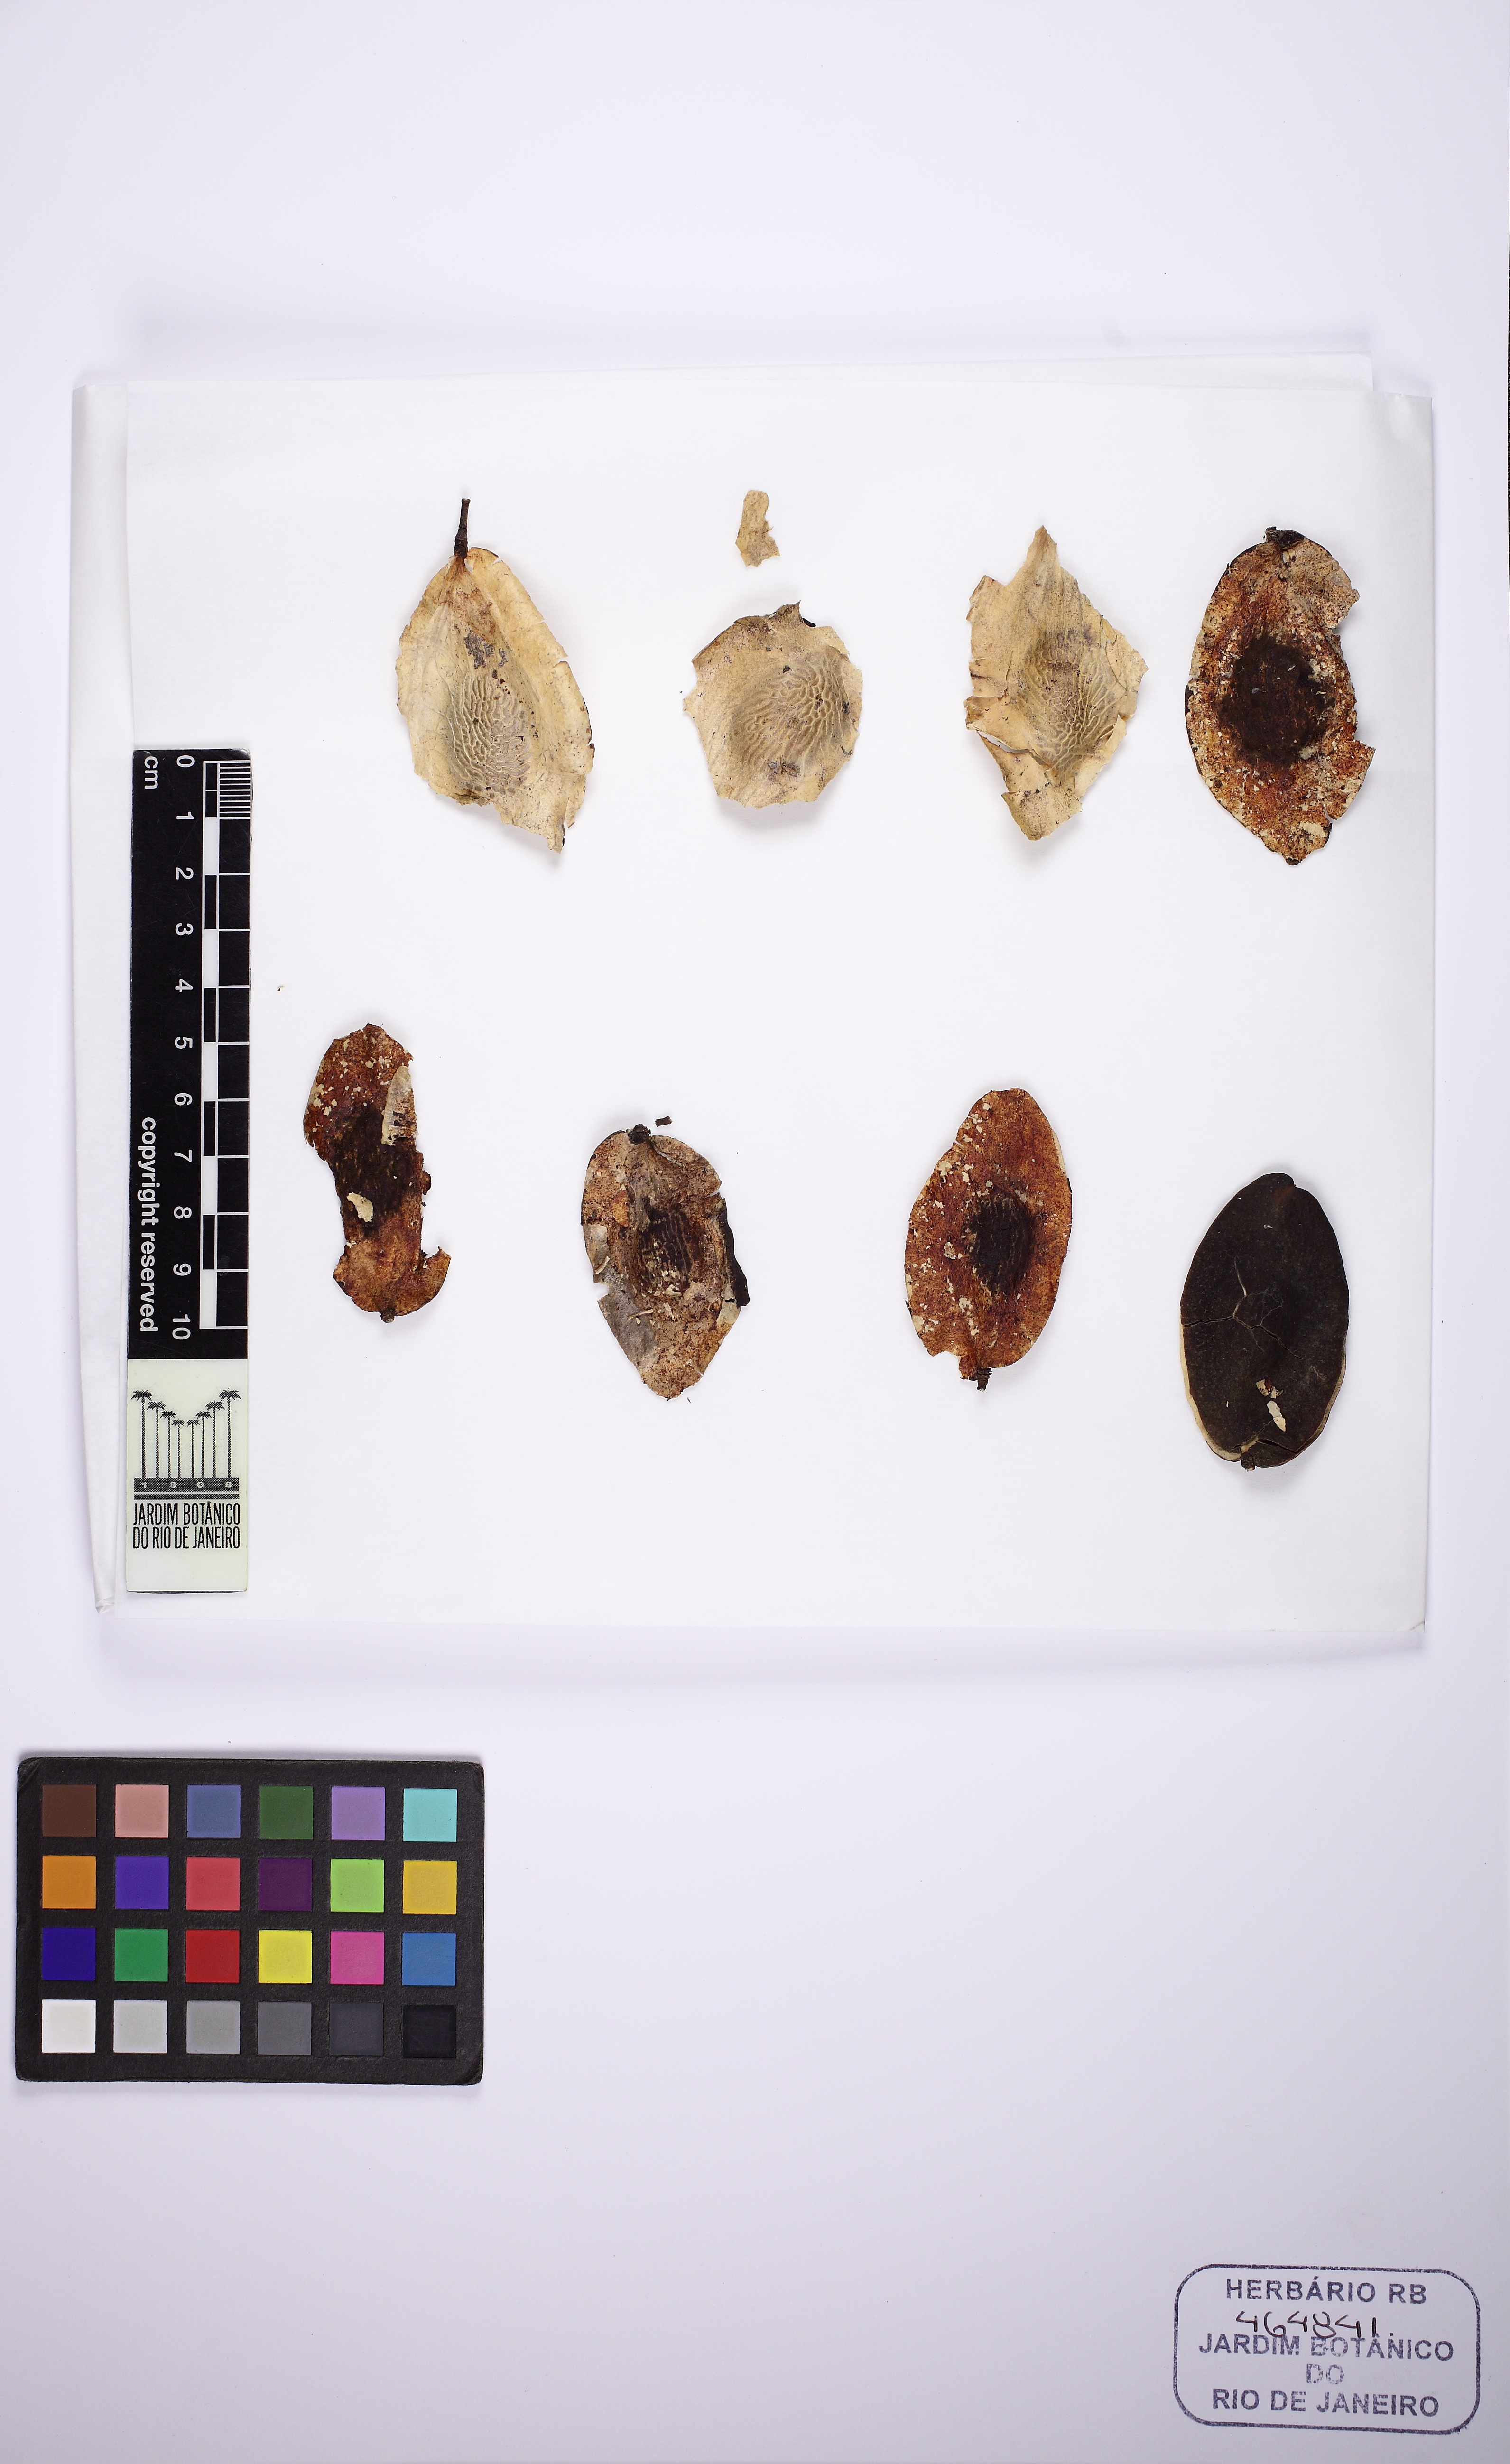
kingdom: Plantae
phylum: Tracheophyta
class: Magnoliopsida
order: Fabales
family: Fabaceae
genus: Pterodon
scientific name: Pterodon emarginatus
